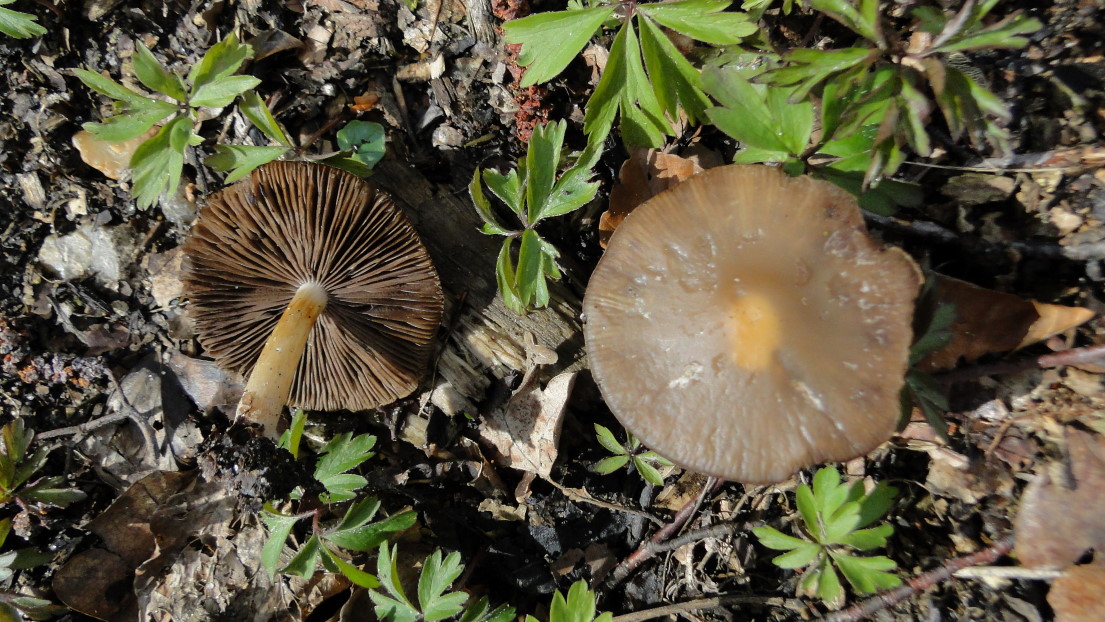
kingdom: Fungi
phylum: Basidiomycota
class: Agaricomycetes
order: Agaricales
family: Psathyrellaceae
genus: Psathyrella
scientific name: Psathyrella spadiceogrisea
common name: gråbrun mørkhat
